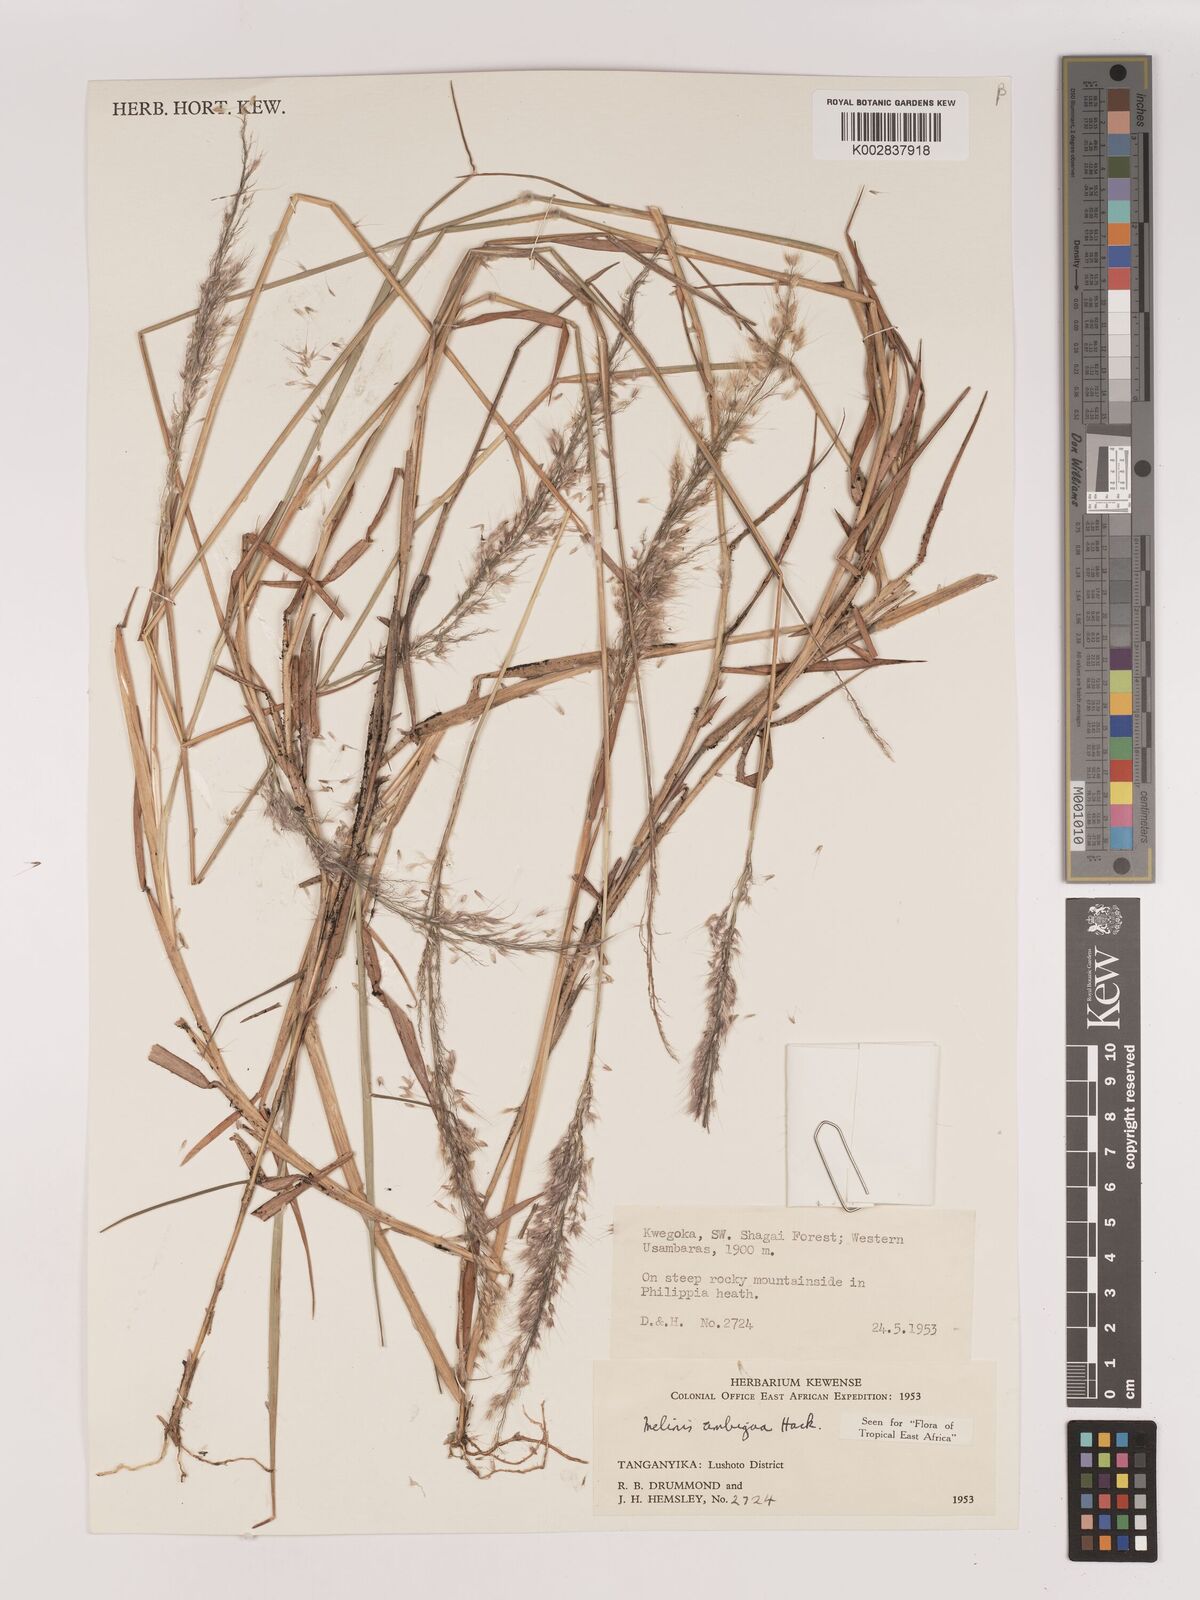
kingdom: Plantae
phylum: Tracheophyta
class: Liliopsida
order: Poales
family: Poaceae
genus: Melinis
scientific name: Melinis ambigua
